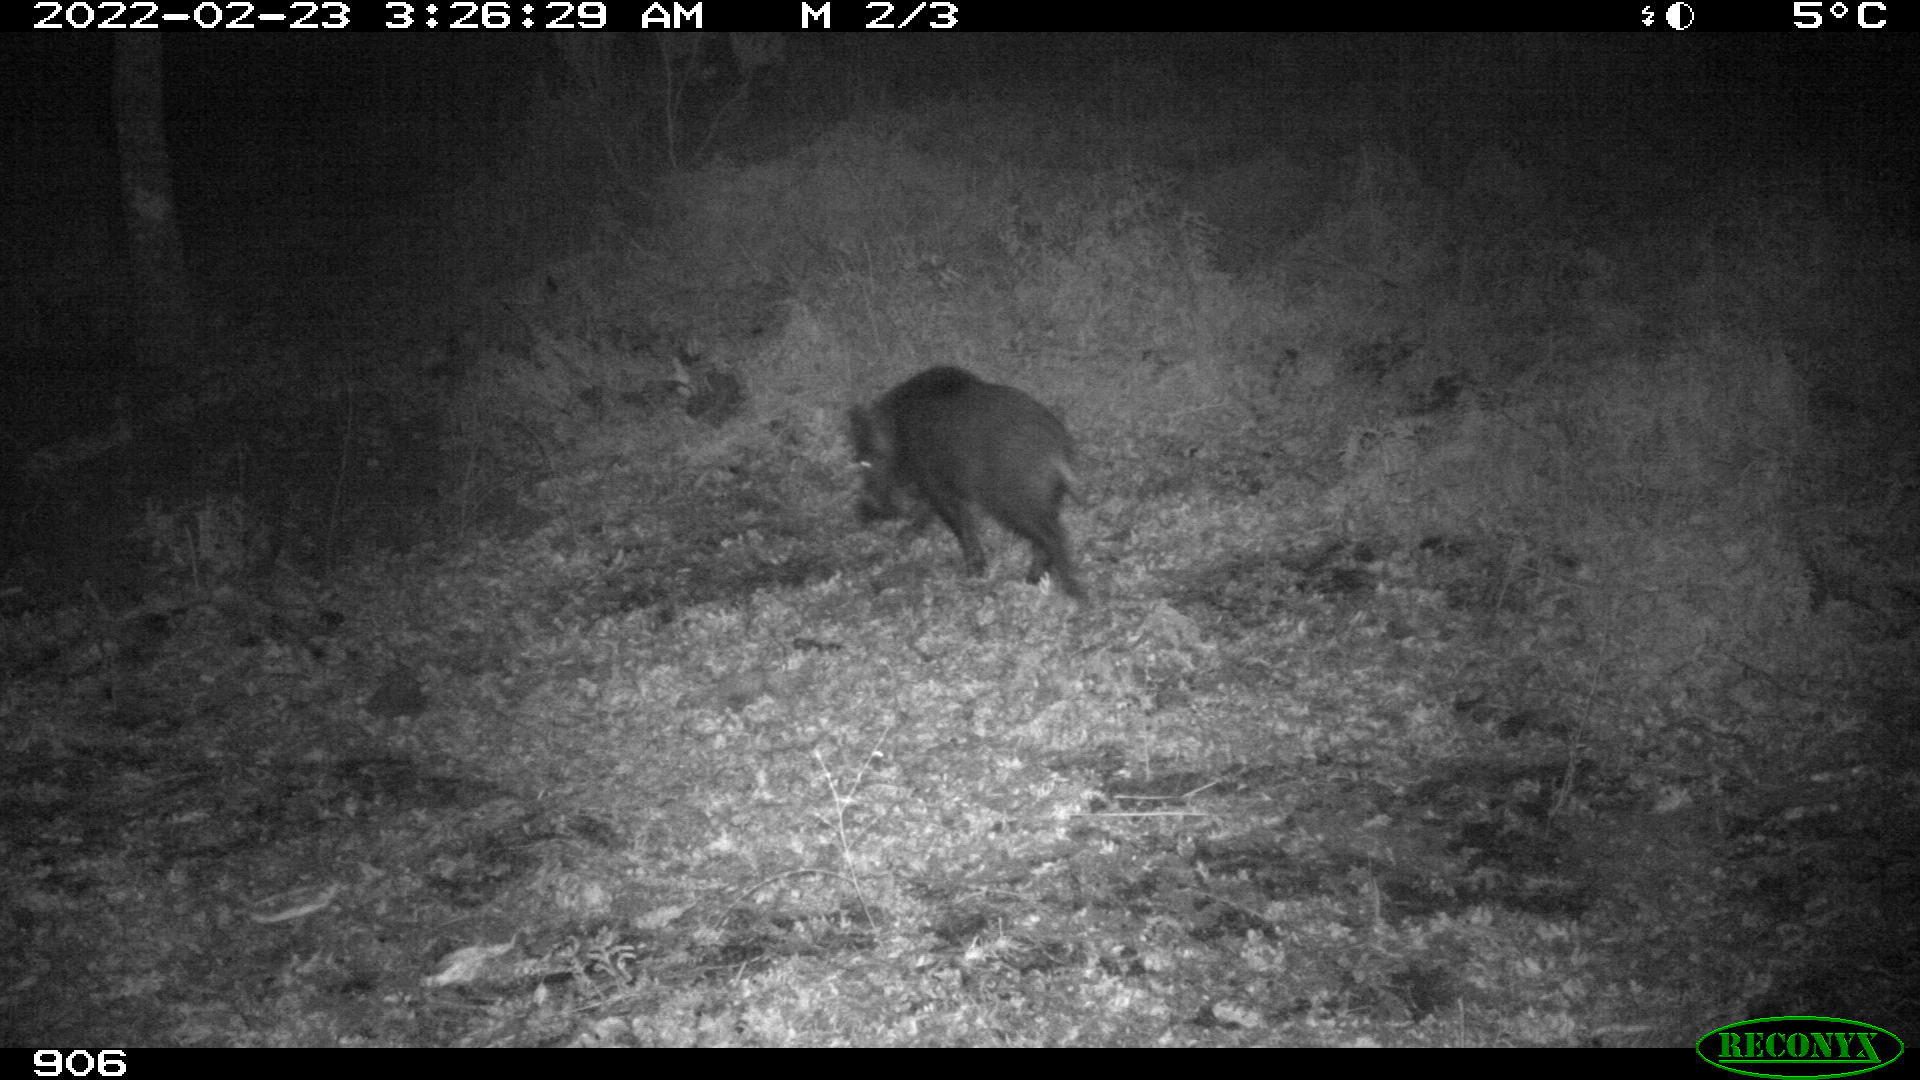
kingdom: Animalia
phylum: Chordata
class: Mammalia
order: Artiodactyla
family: Suidae
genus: Sus
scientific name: Sus scrofa
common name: Wild boar
